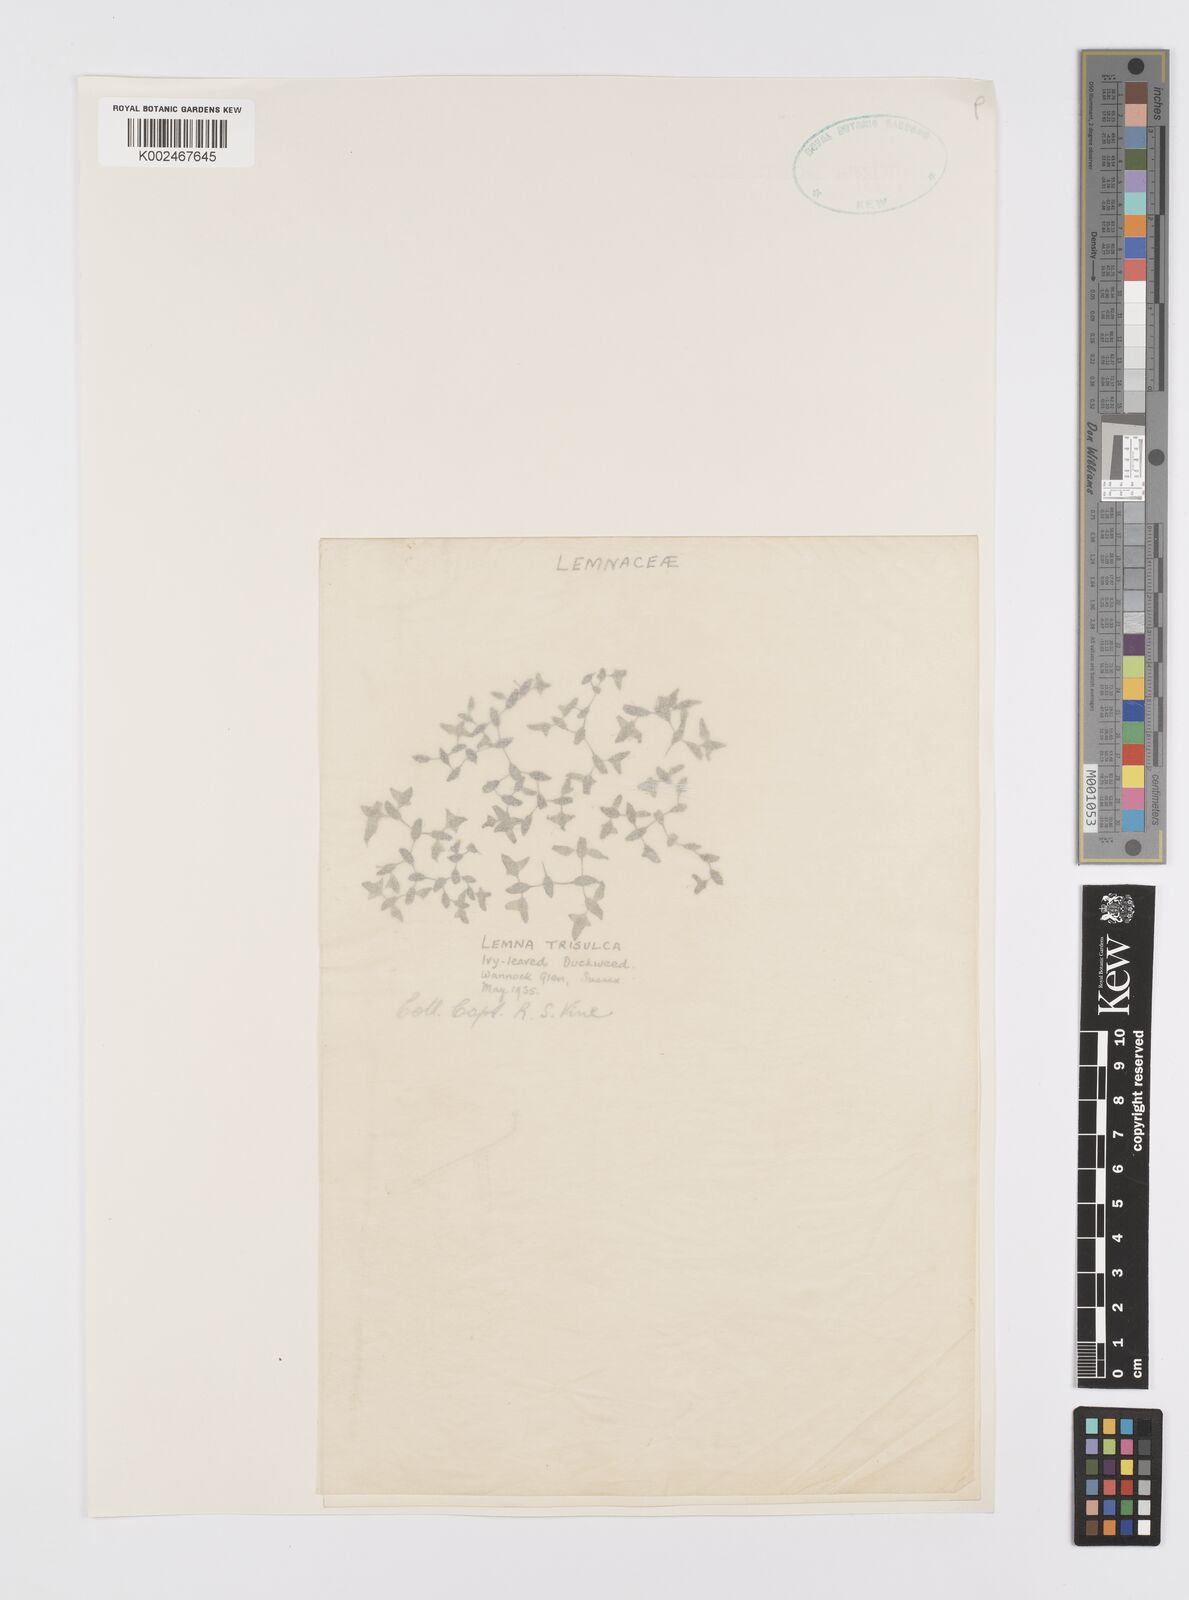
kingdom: Plantae
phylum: Tracheophyta
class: Liliopsida
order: Alismatales
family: Araceae
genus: Lemna
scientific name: Lemna trisulca
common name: Ivy-leaved duckweed
